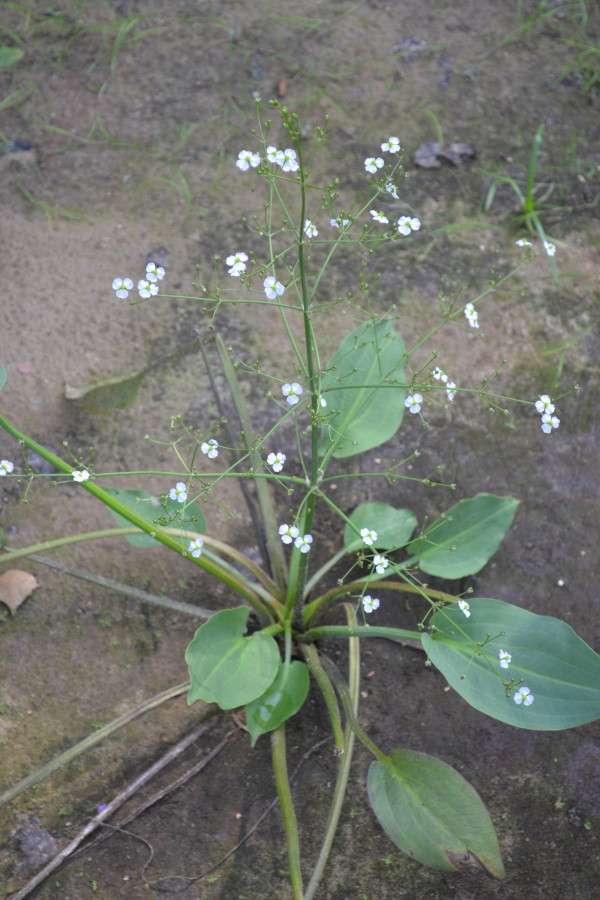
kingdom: Plantae
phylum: Tracheophyta
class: Liliopsida
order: Alismatales
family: Alismataceae
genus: Alisma
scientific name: Alisma plantago-aquatica
